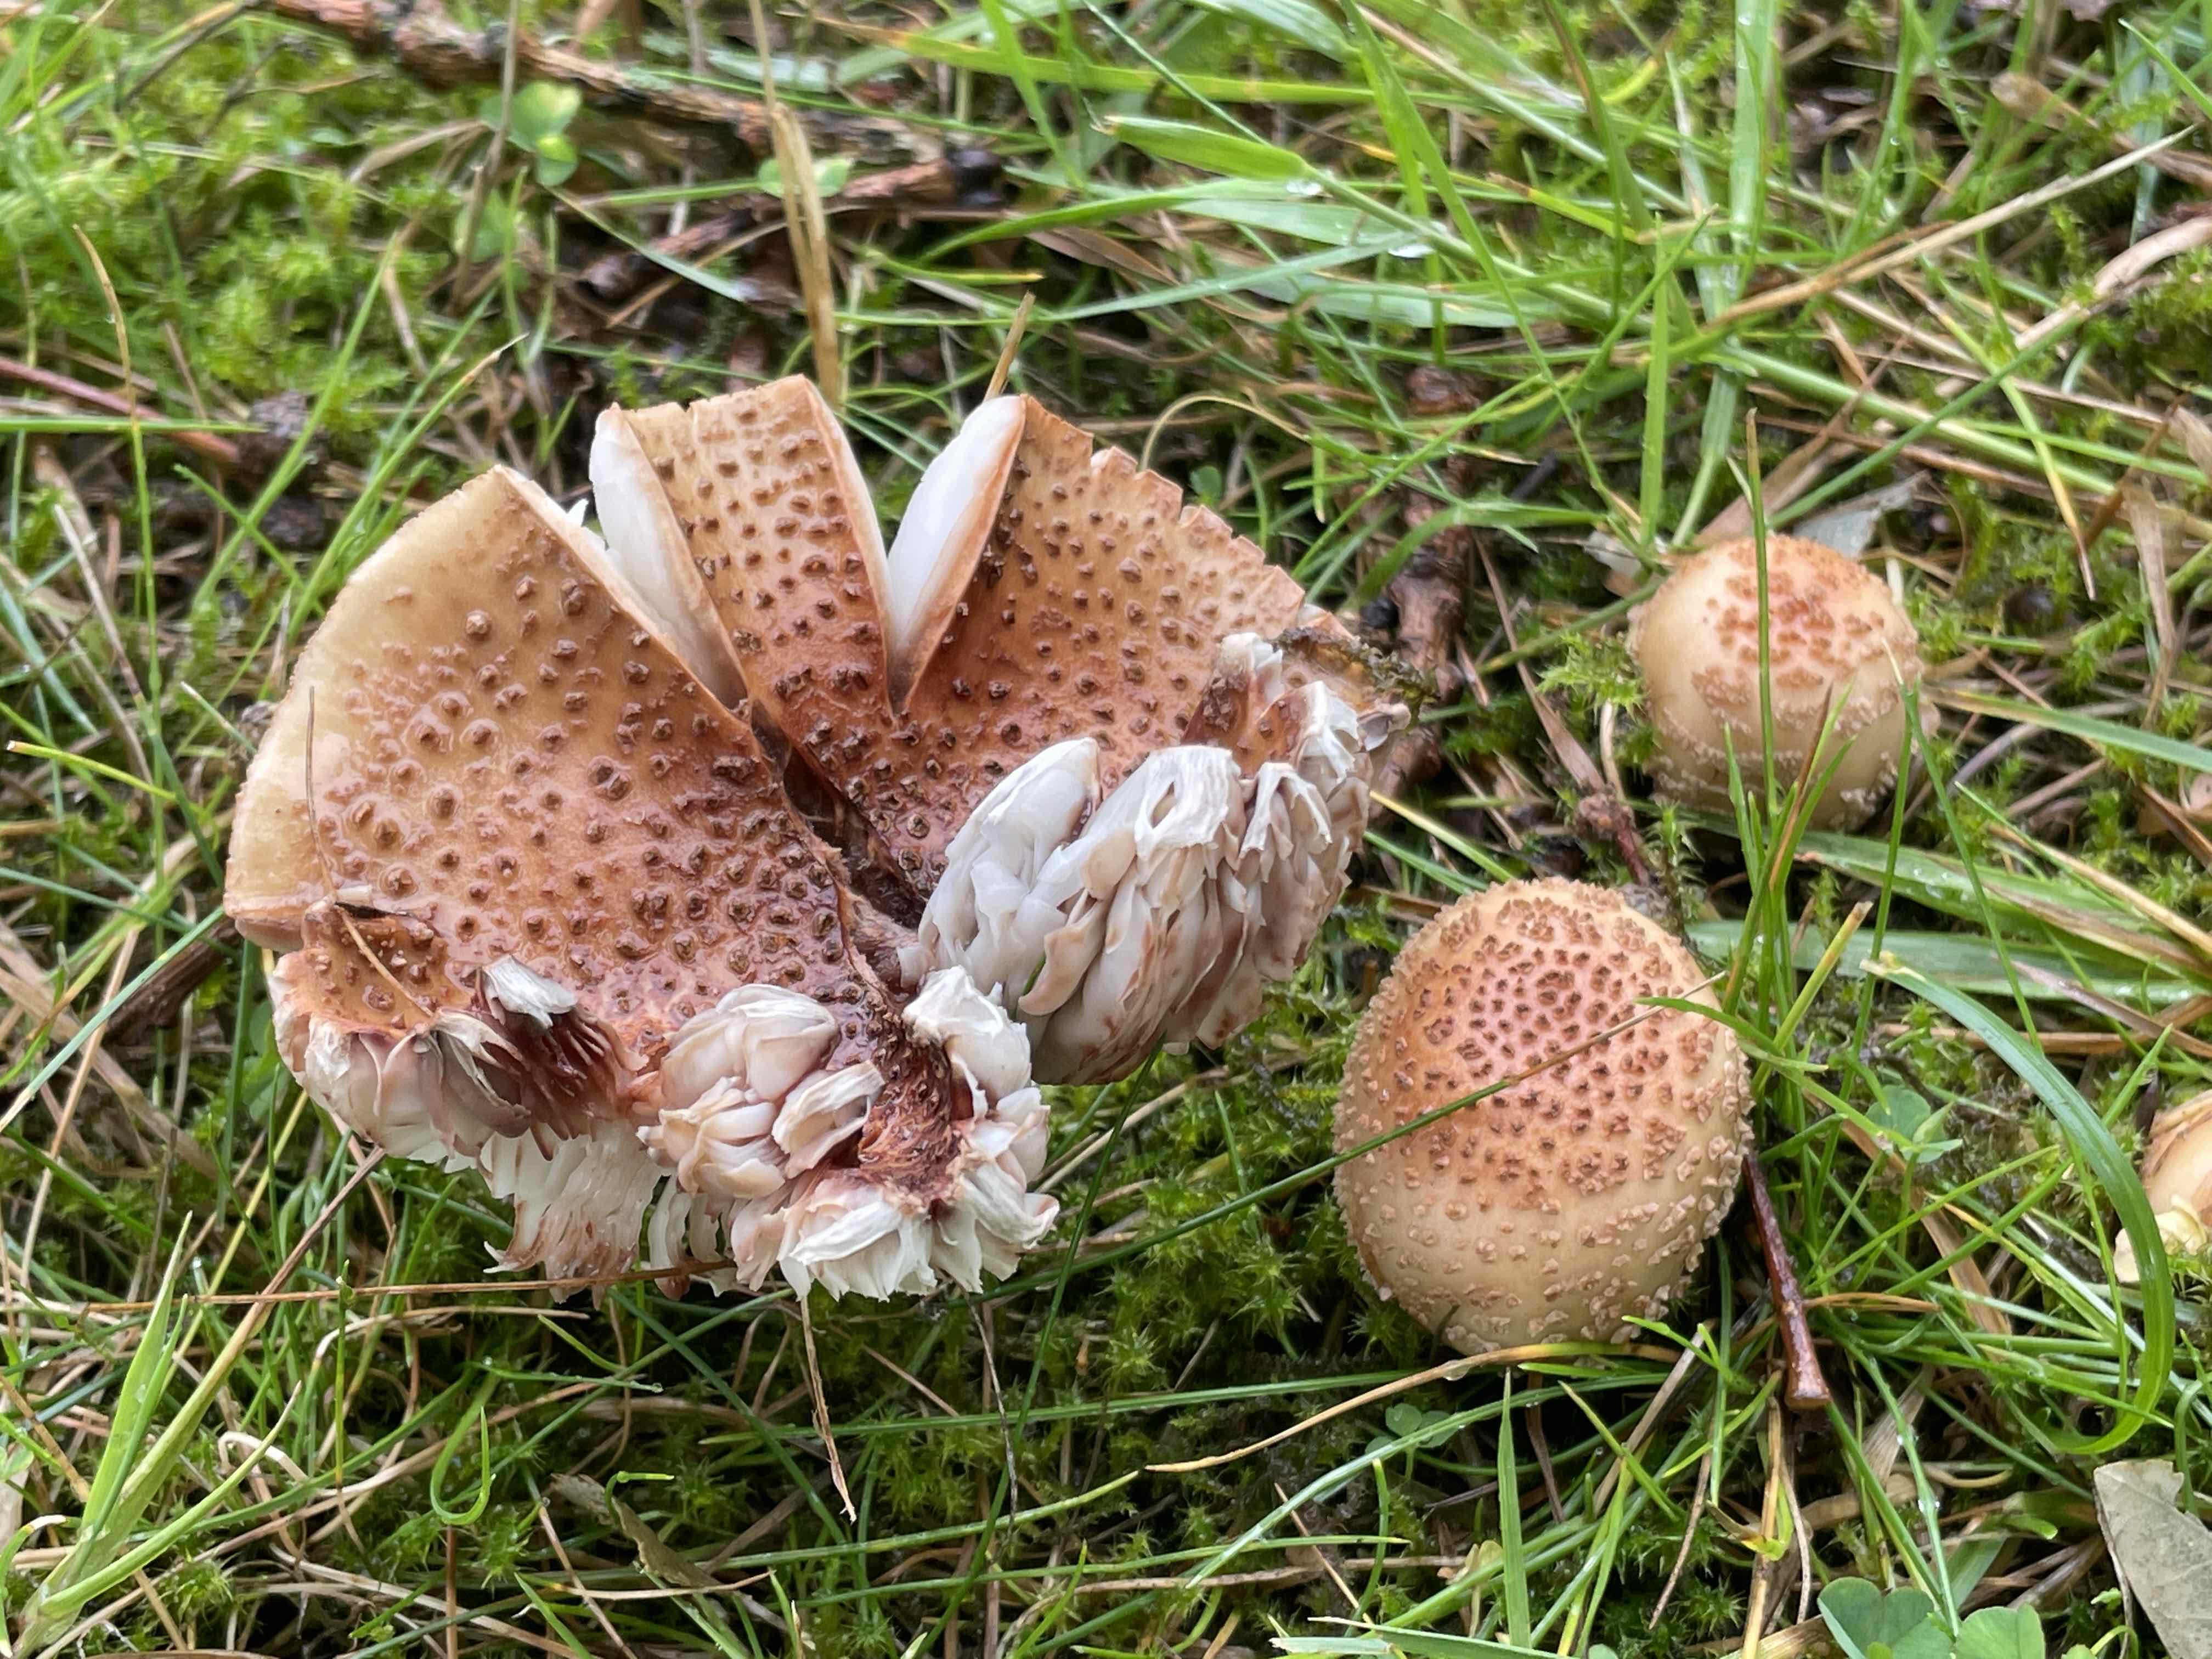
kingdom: Fungi
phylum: Basidiomycota
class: Agaricomycetes
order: Agaricales
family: Amanitaceae
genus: Amanita
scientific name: Amanita rubescens
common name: rødmende fluesvamp
